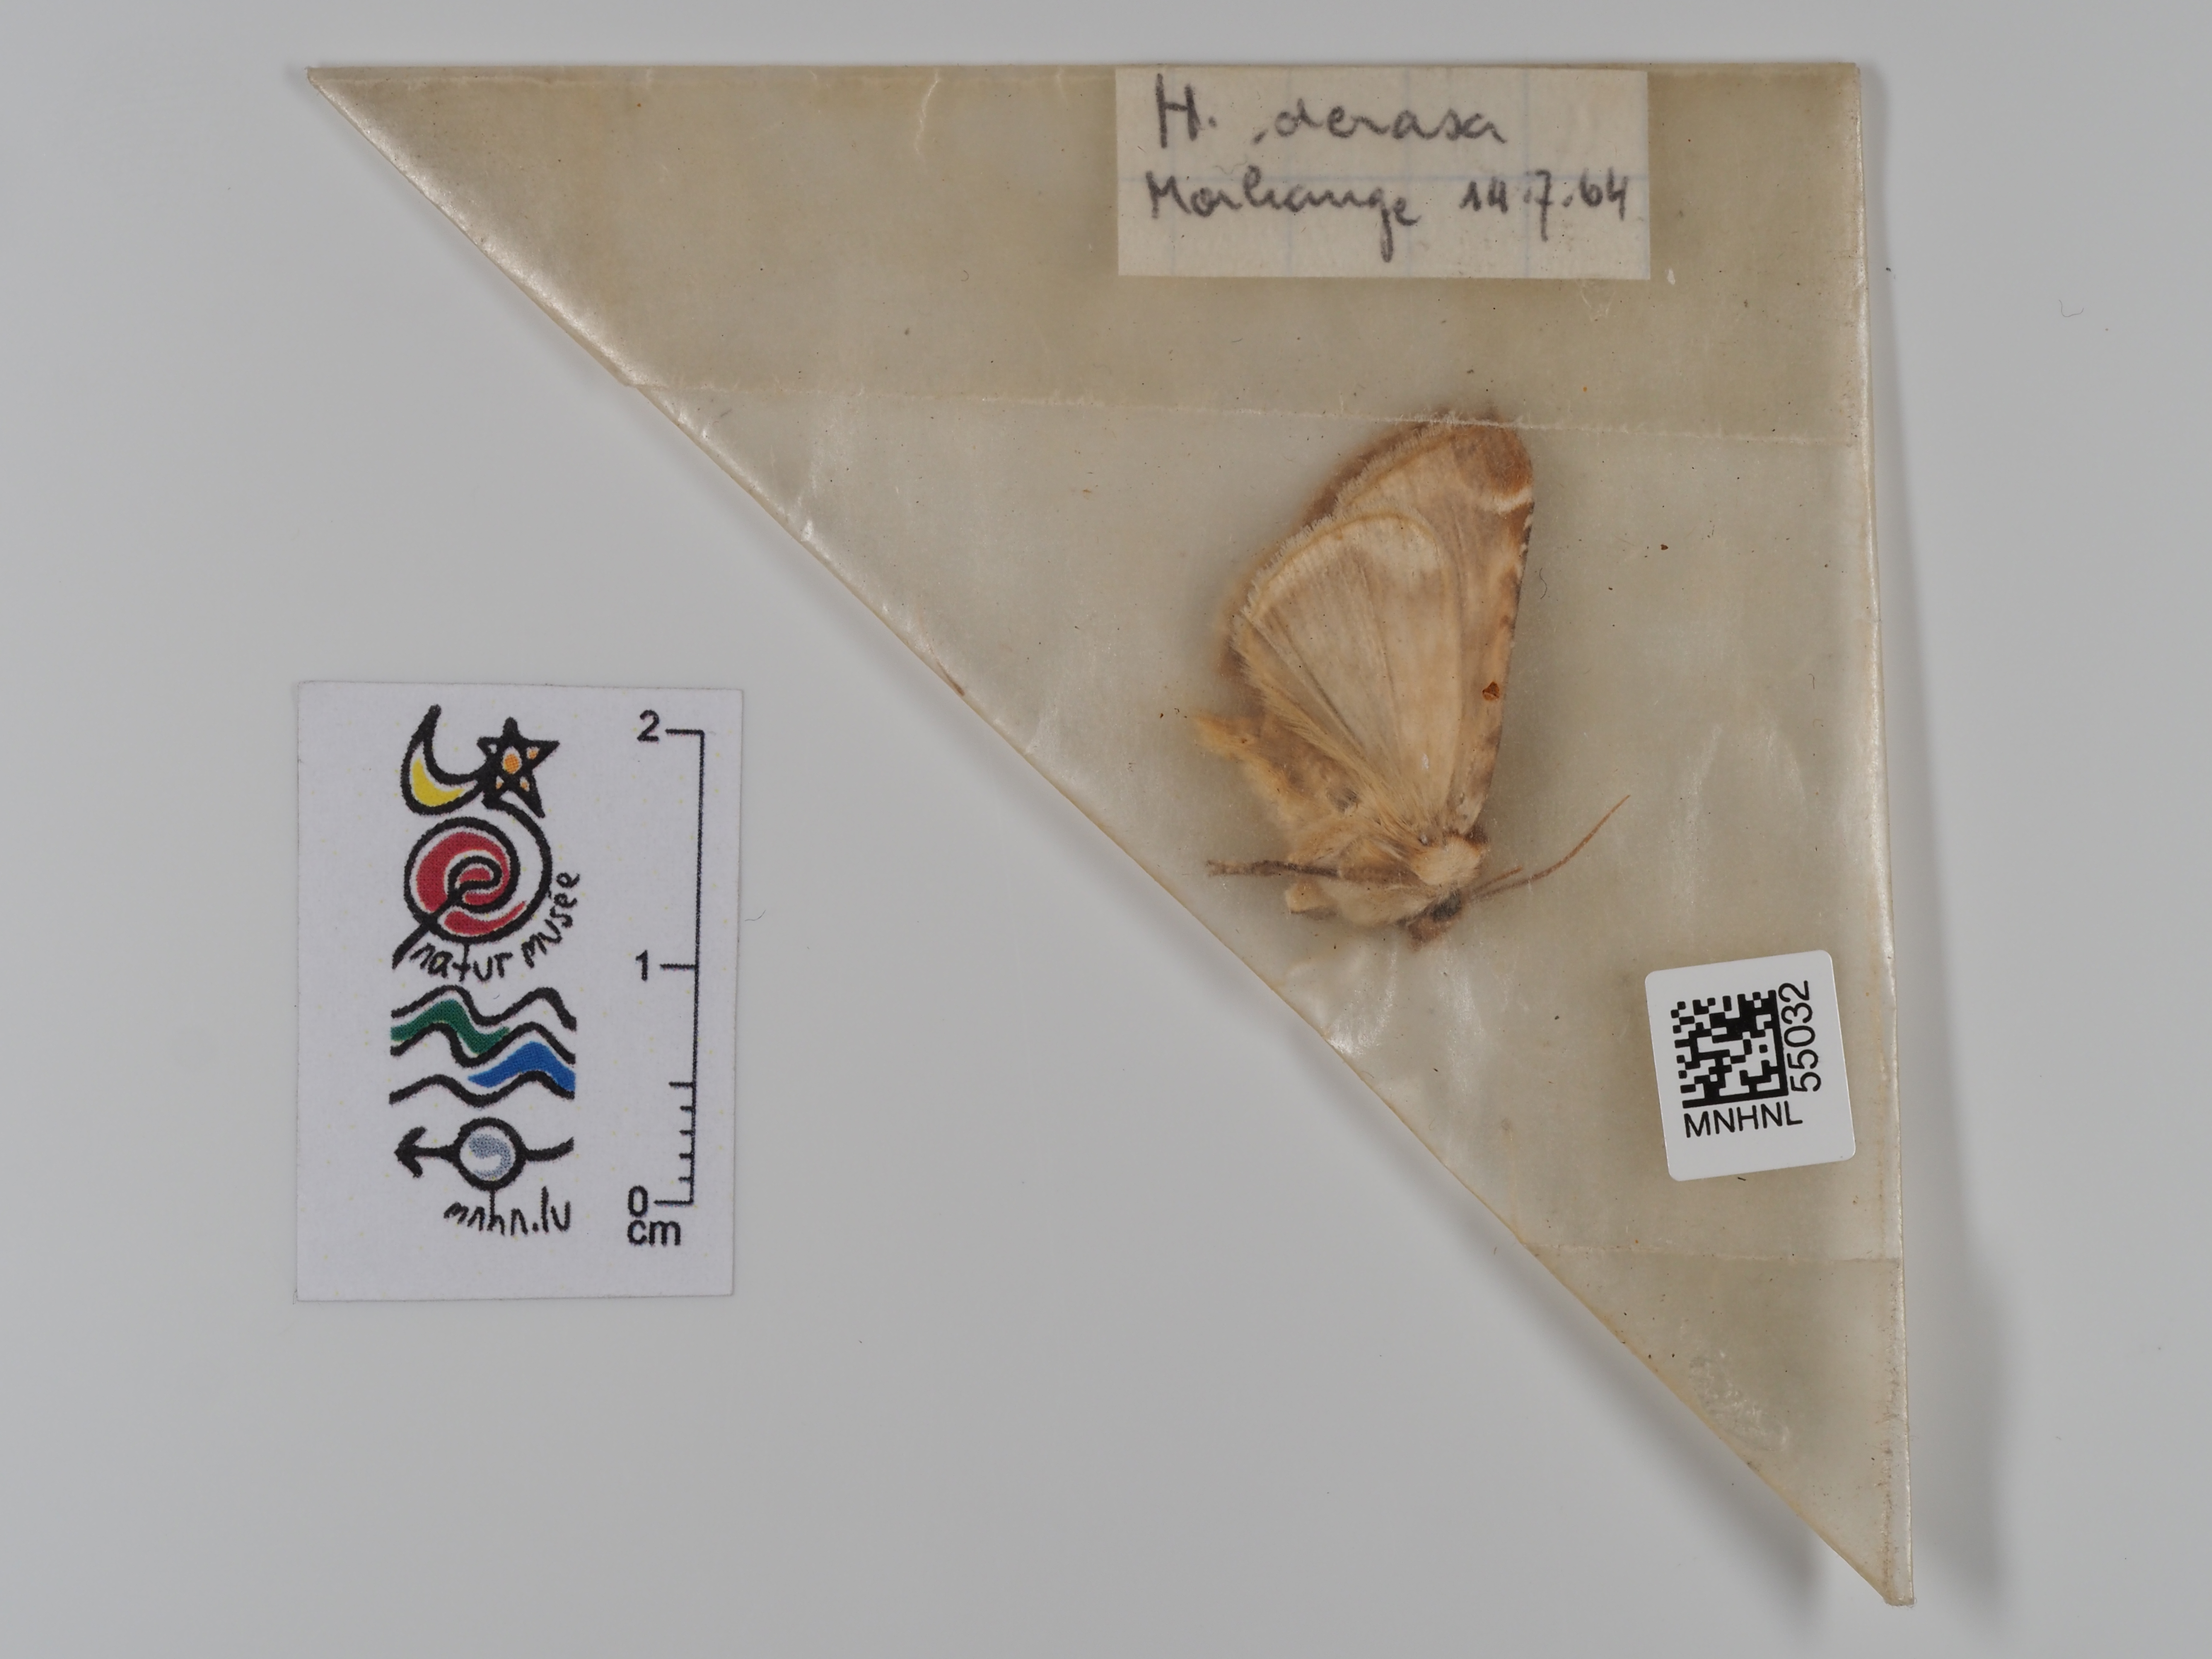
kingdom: Animalia
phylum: Arthropoda
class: Insecta
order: Lepidoptera
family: Drepanidae
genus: Habrosyne
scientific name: Habrosyne pyritoides
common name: Buff arches
